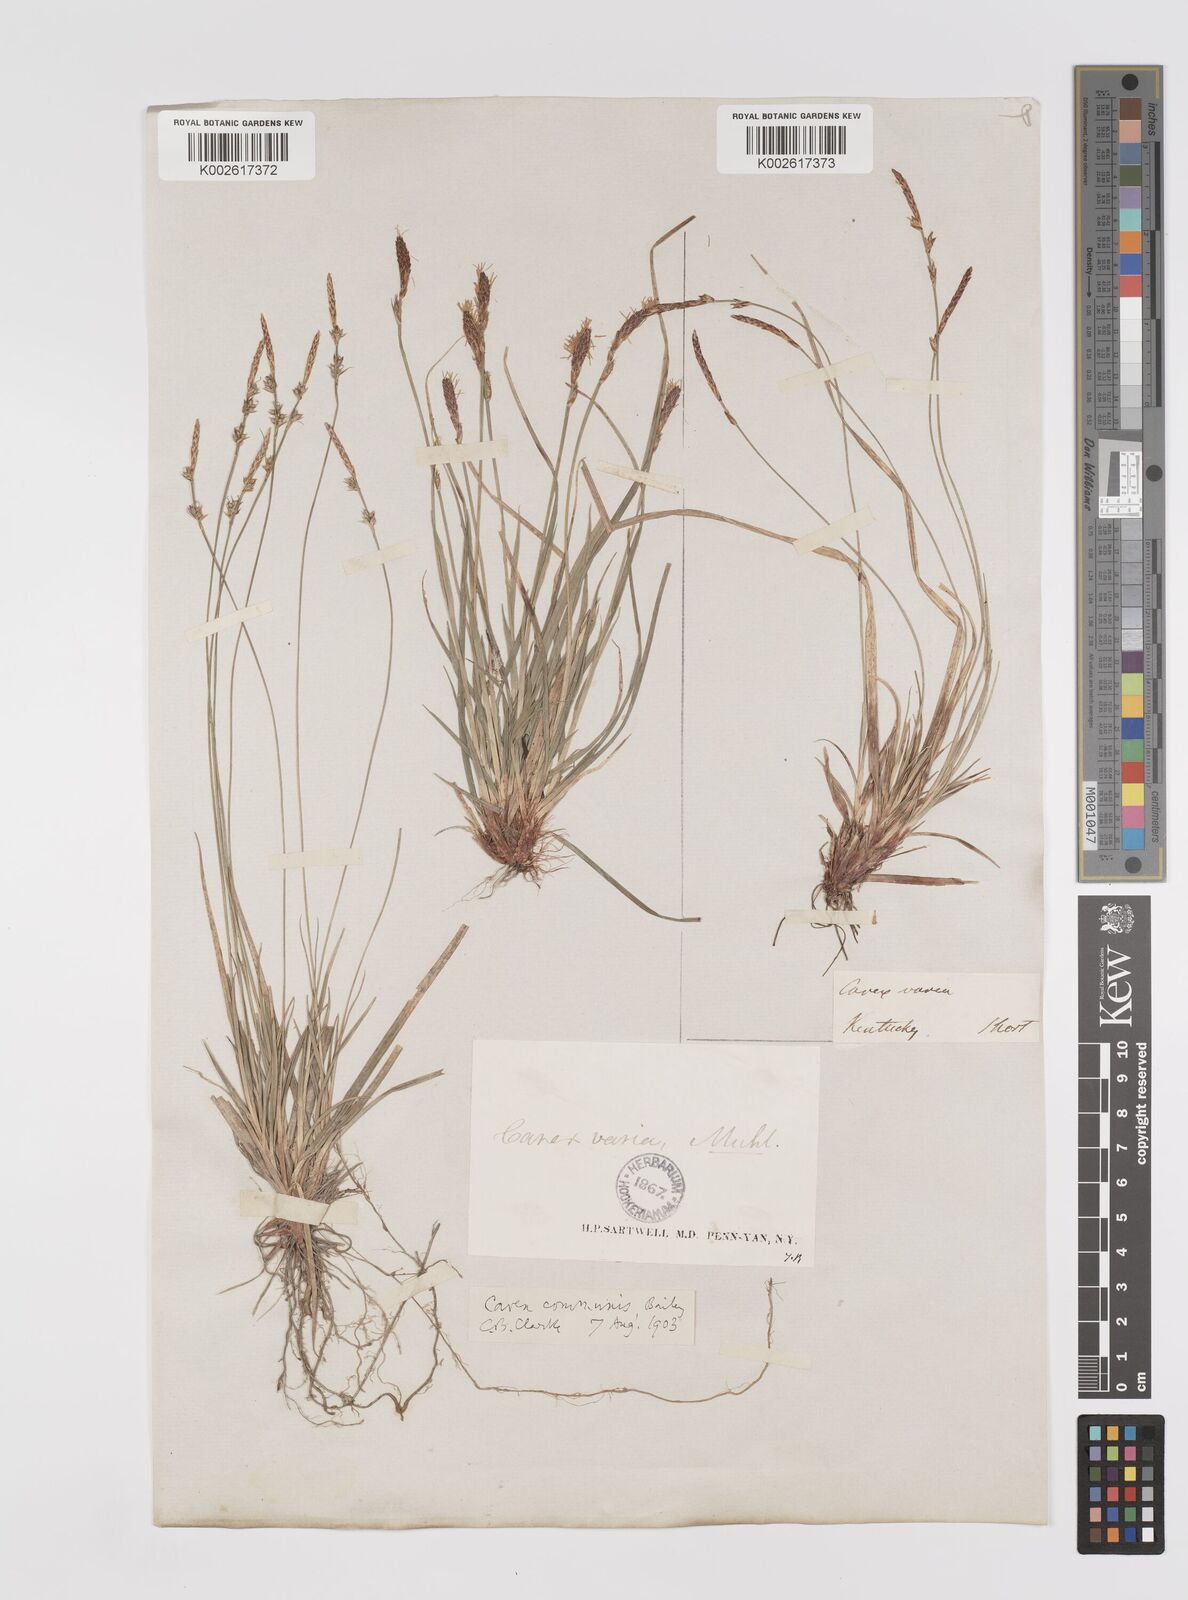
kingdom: Plantae
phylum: Tracheophyta
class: Liliopsida
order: Poales
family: Cyperaceae
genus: Carex
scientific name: Carex communis
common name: Colonial oak sedge
